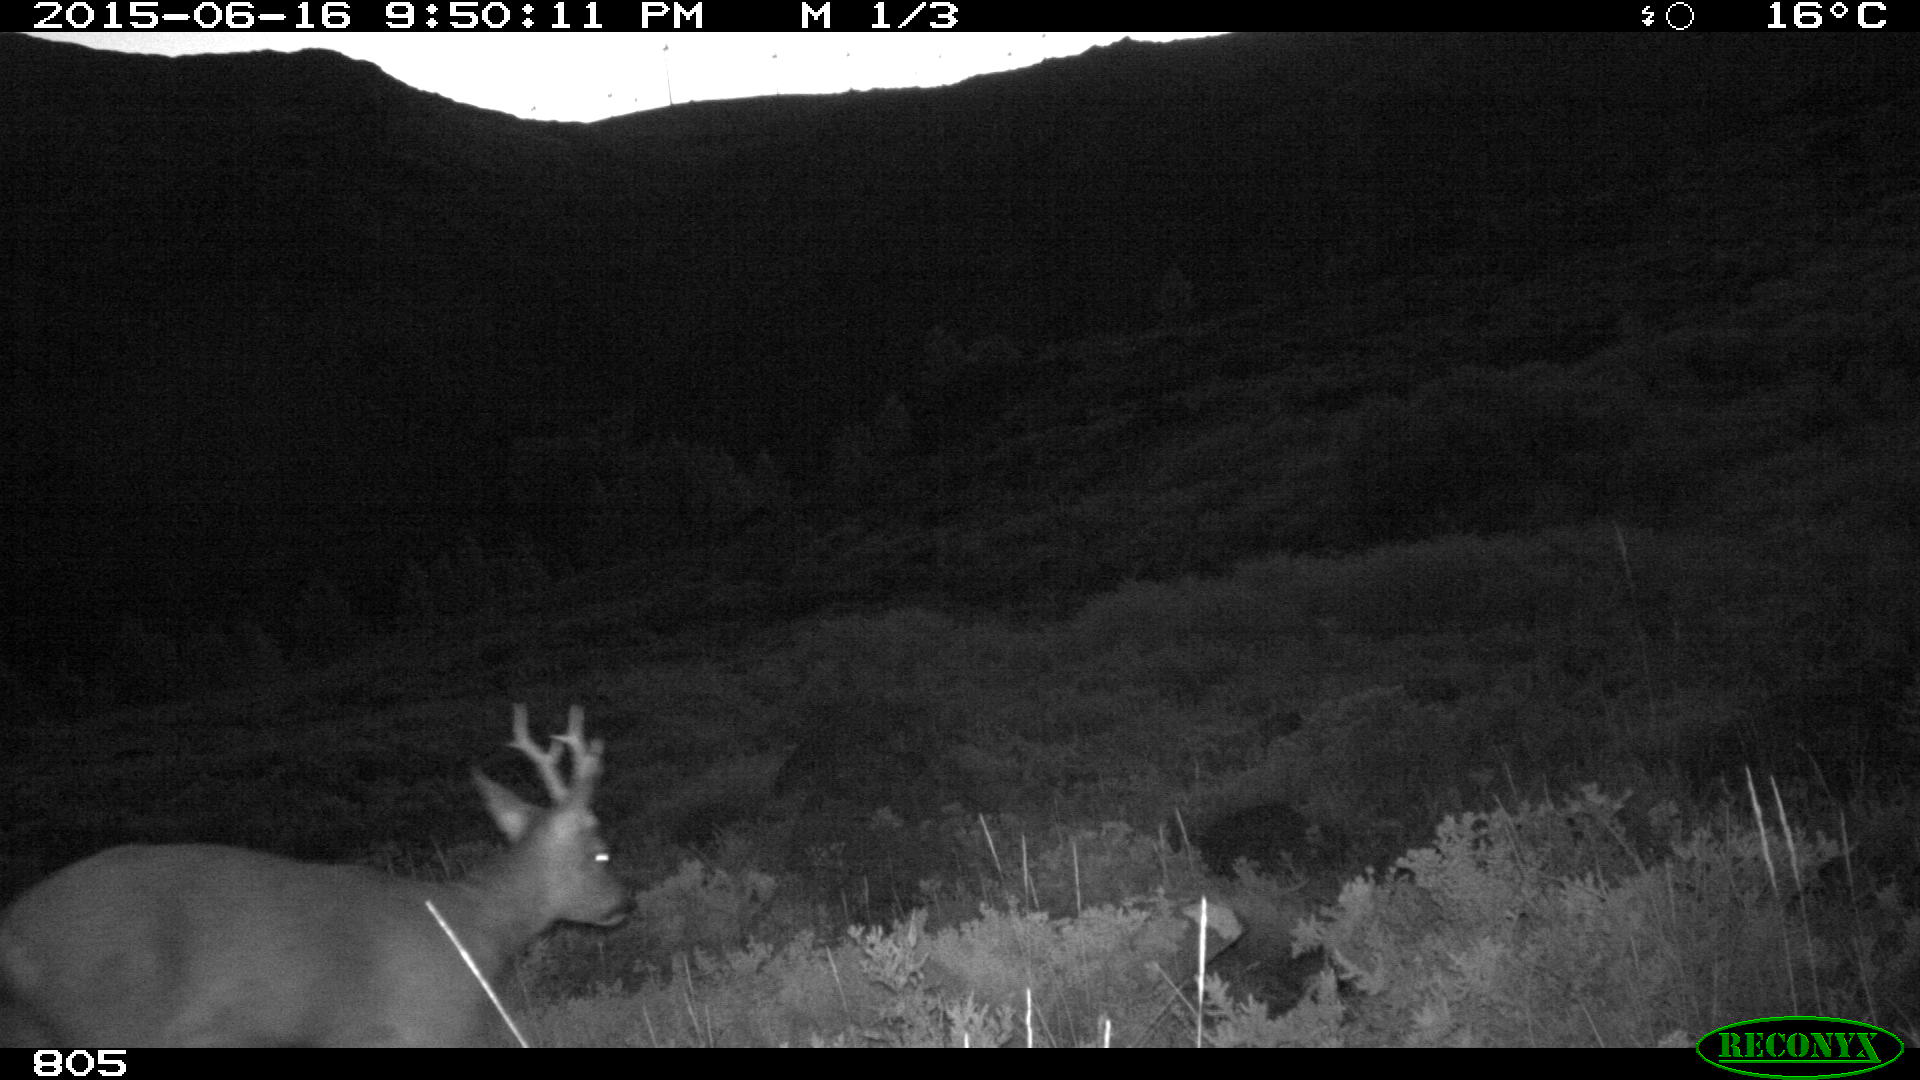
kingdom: Animalia
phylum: Chordata
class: Mammalia
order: Artiodactyla
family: Cervidae
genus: Capreolus
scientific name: Capreolus capreolus
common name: Western roe deer
